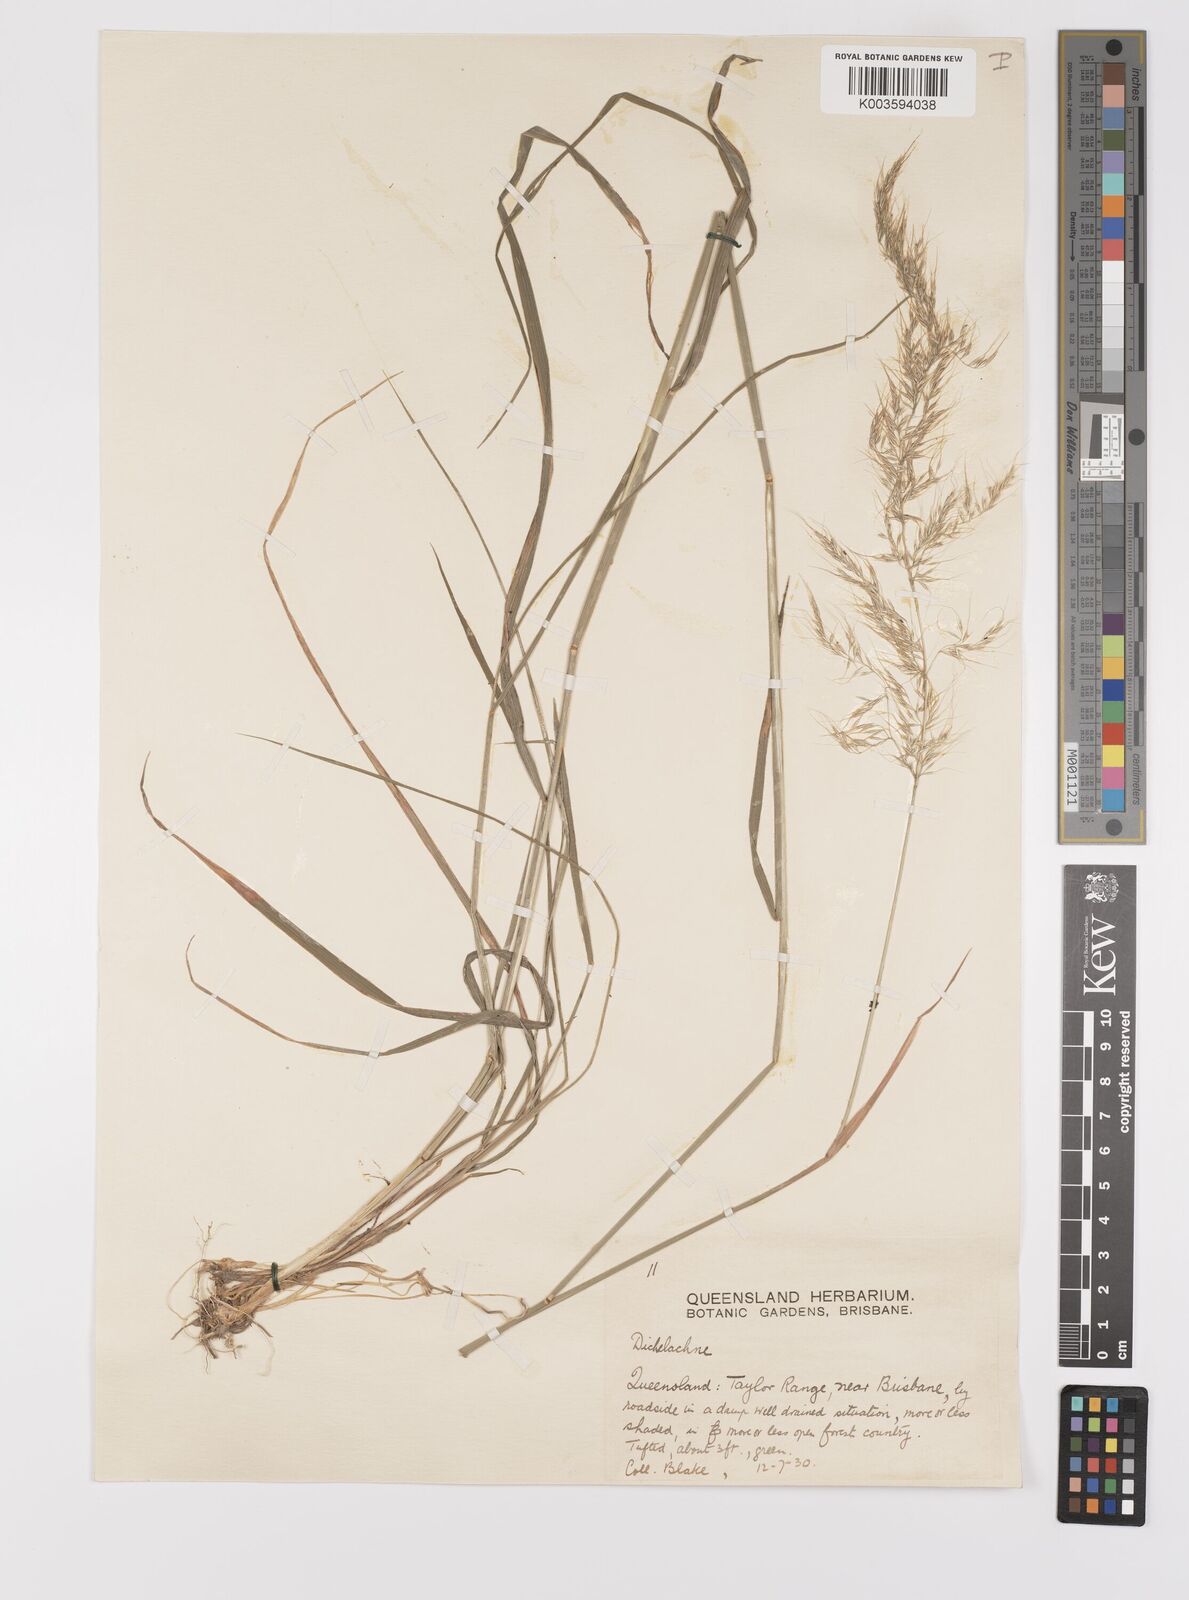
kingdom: Plantae
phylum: Tracheophyta
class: Liliopsida
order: Poales
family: Poaceae
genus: Dichelachne
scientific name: Dichelachne rara
